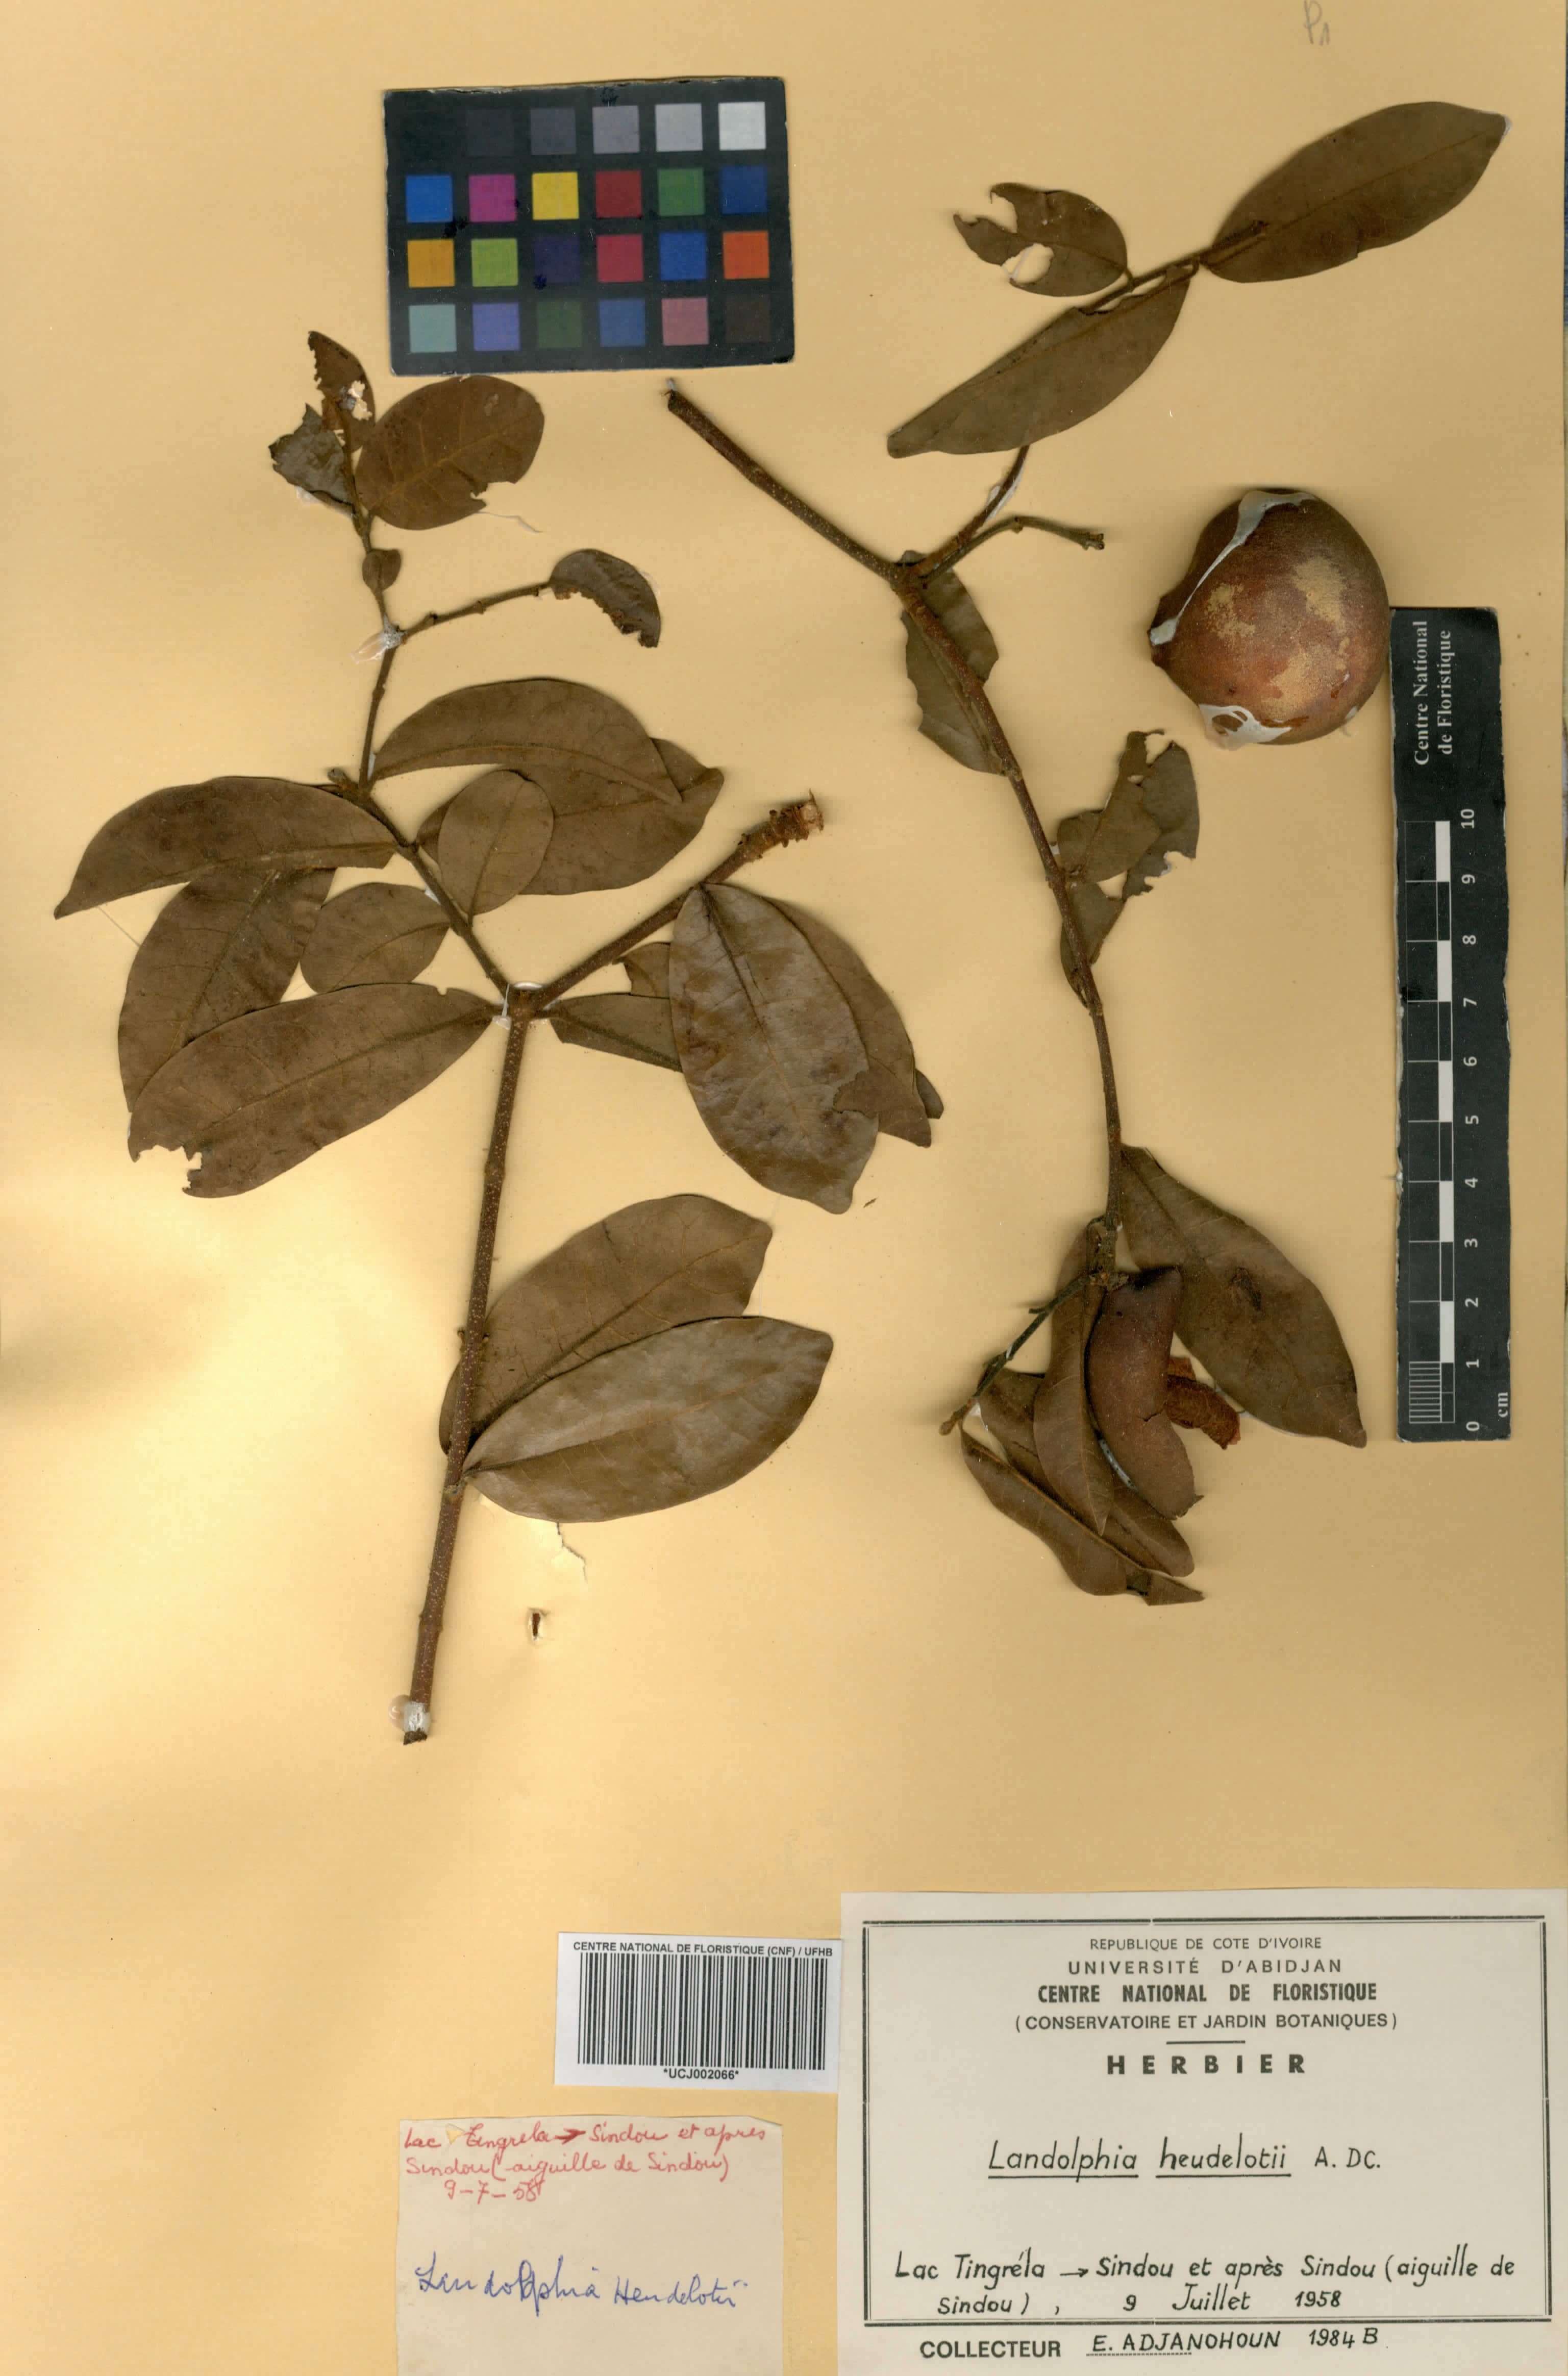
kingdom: Plantae
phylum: Tracheophyta
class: Magnoliopsida
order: Gentianales
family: Apocynaceae
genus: Landolphia
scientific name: Landolphia heudelotii
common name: Landolphia-rubber
